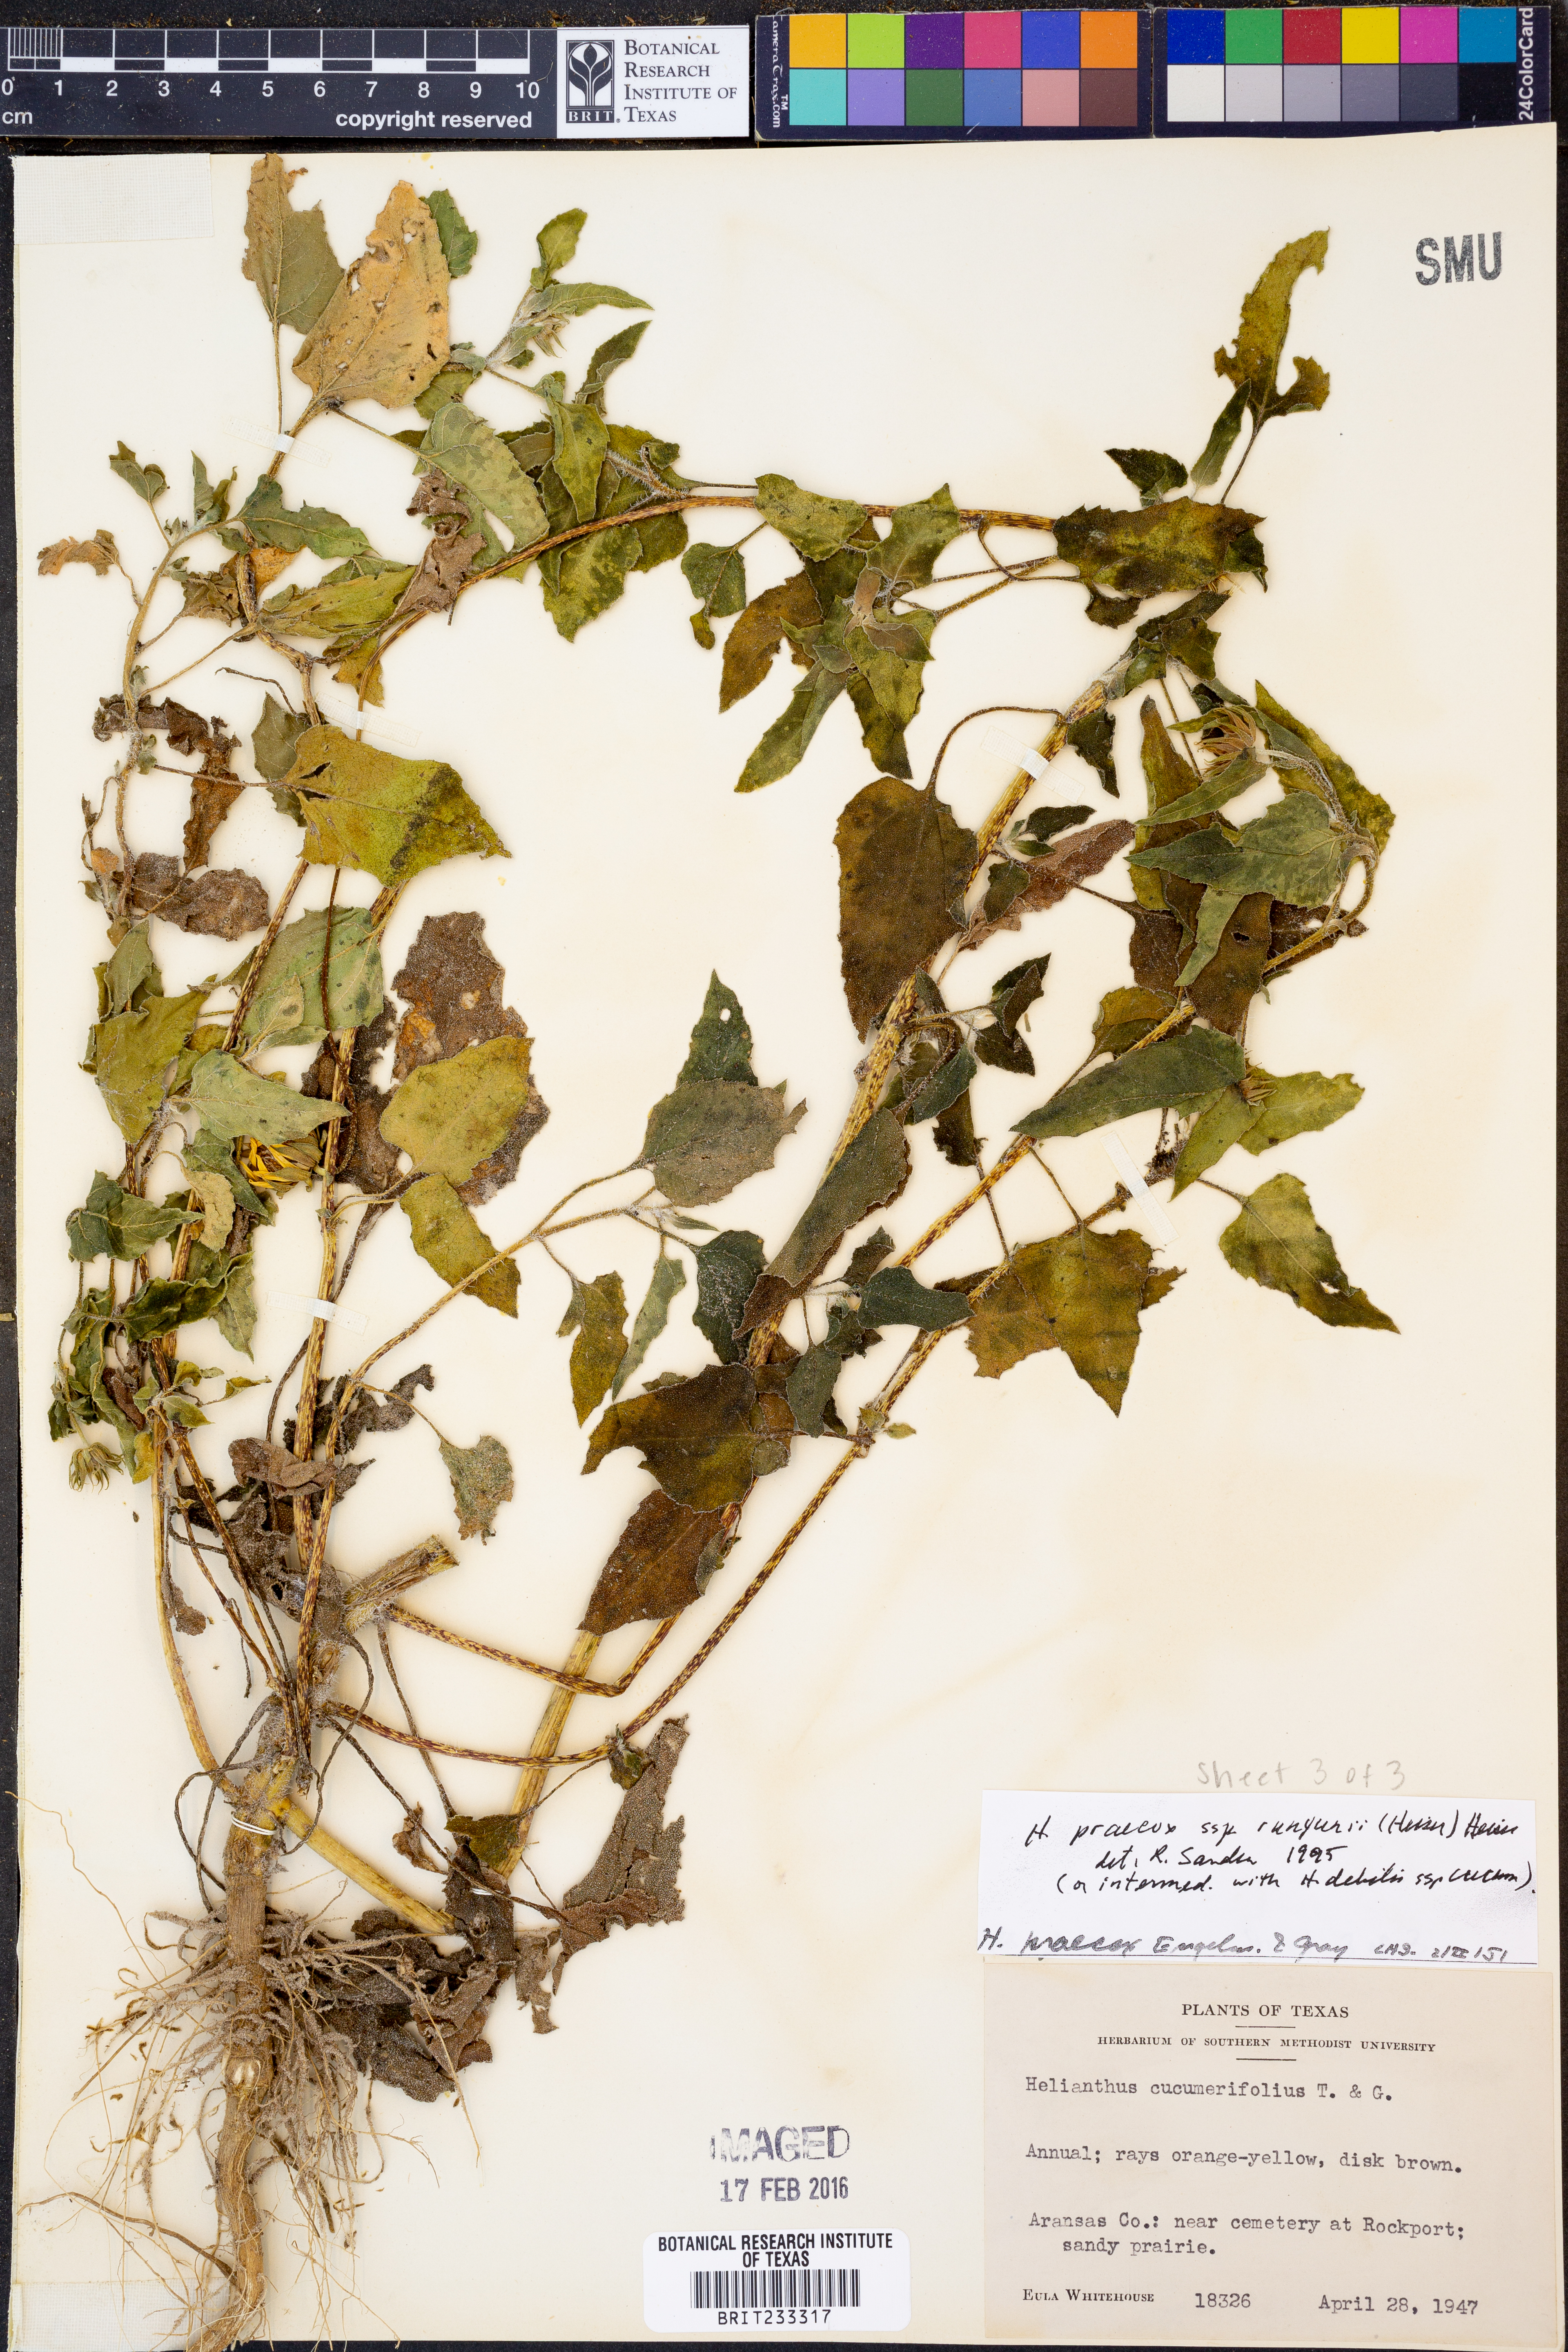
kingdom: Plantae
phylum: Tracheophyta
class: Magnoliopsida
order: Asterales
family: Asteraceae
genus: Helianthus
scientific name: Helianthus praecox
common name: Texas sunflower
